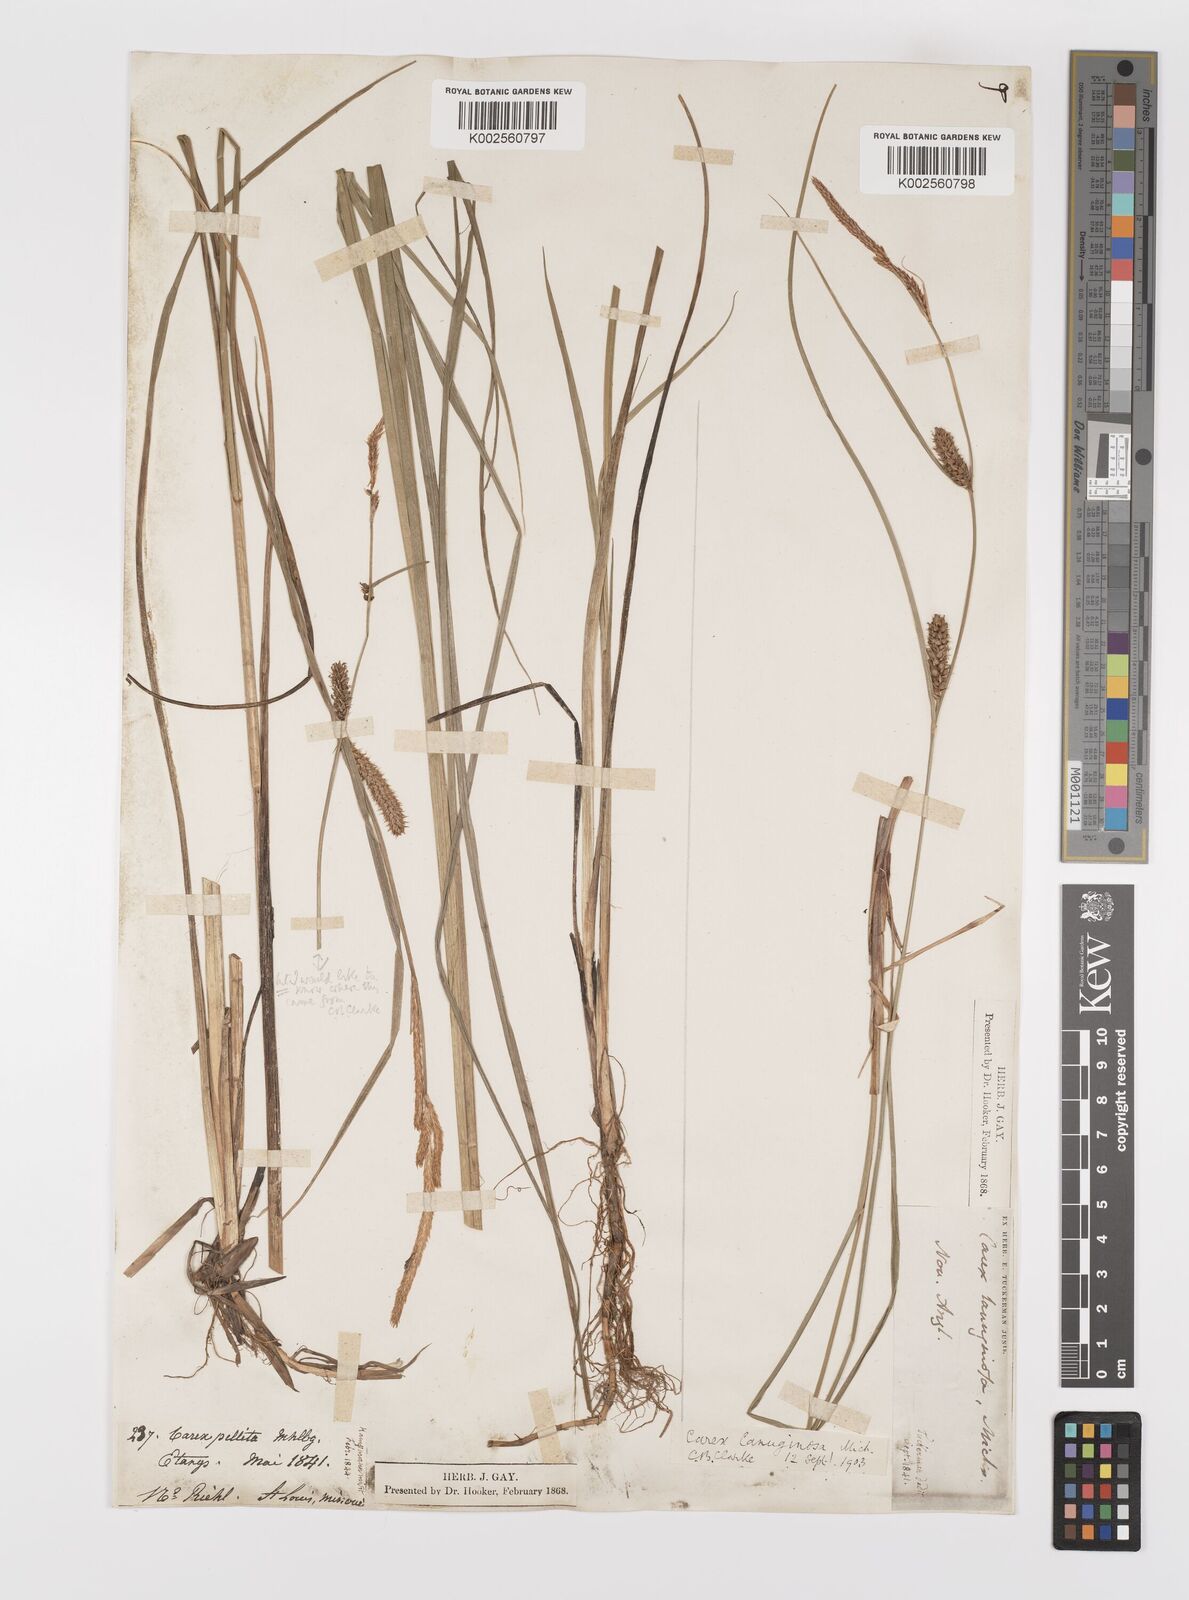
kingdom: Plantae
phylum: Tracheophyta
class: Liliopsida
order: Poales
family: Cyperaceae
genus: Carex
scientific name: Carex lasiocarpa
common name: Slender sedge
